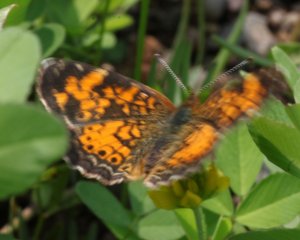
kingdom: Animalia
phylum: Arthropoda
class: Insecta
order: Lepidoptera
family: Nymphalidae
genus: Phyciodes
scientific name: Phyciodes tharos
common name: Northern Crescent
